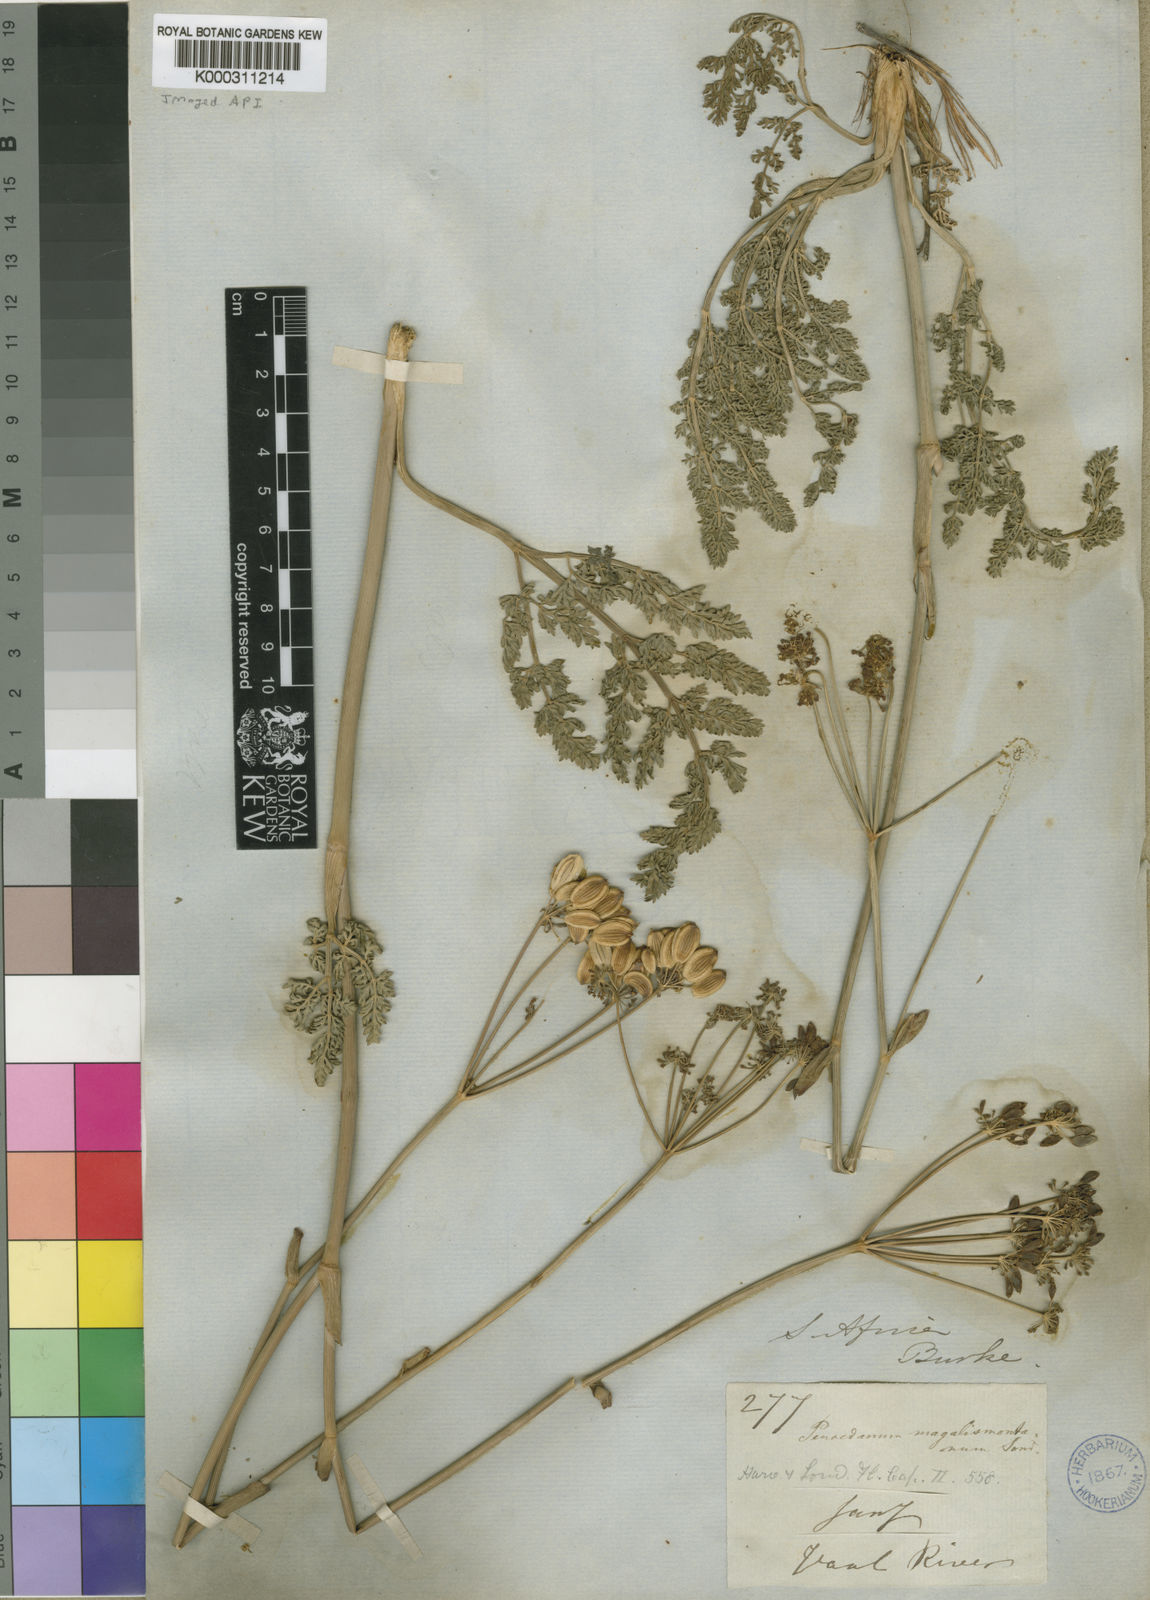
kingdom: Plantae
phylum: Tracheophyta
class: Magnoliopsida
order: Apiales
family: Apiaceae
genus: Afrosciadium
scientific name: Afrosciadium magalismontanum
